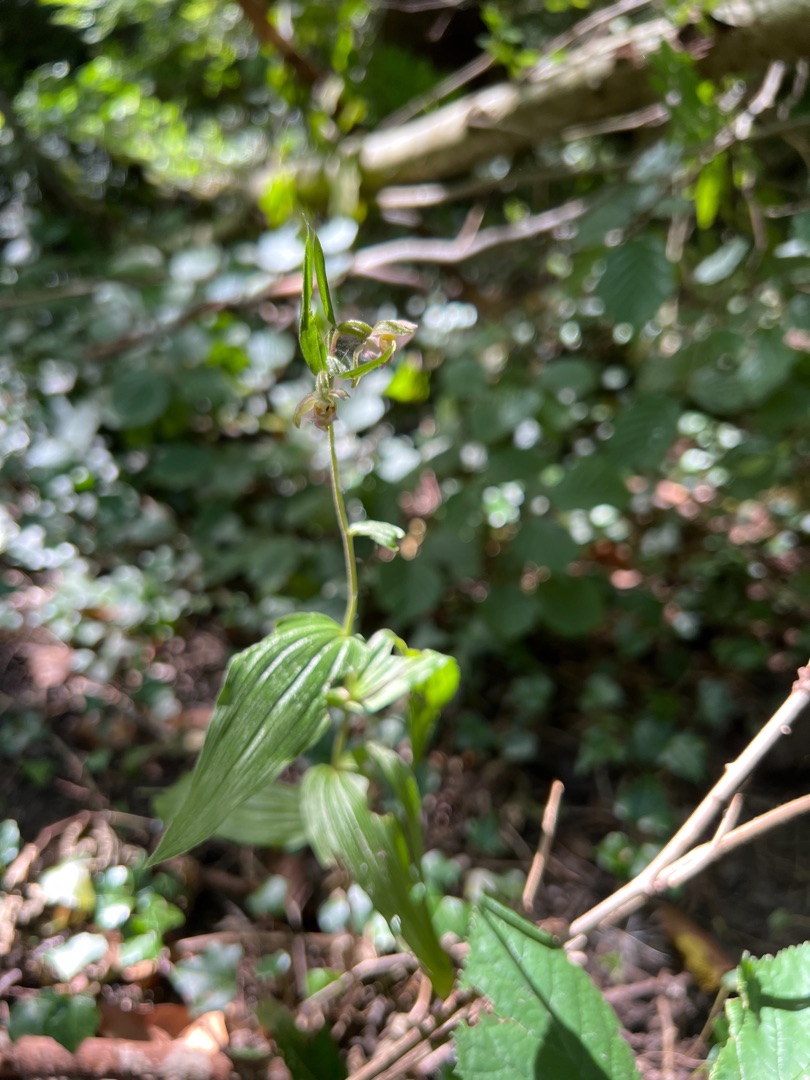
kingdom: Plantae
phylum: Tracheophyta
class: Liliopsida
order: Asparagales
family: Orchidaceae
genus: Epipactis
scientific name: Epipactis helleborine
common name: Skov-hullæbe
